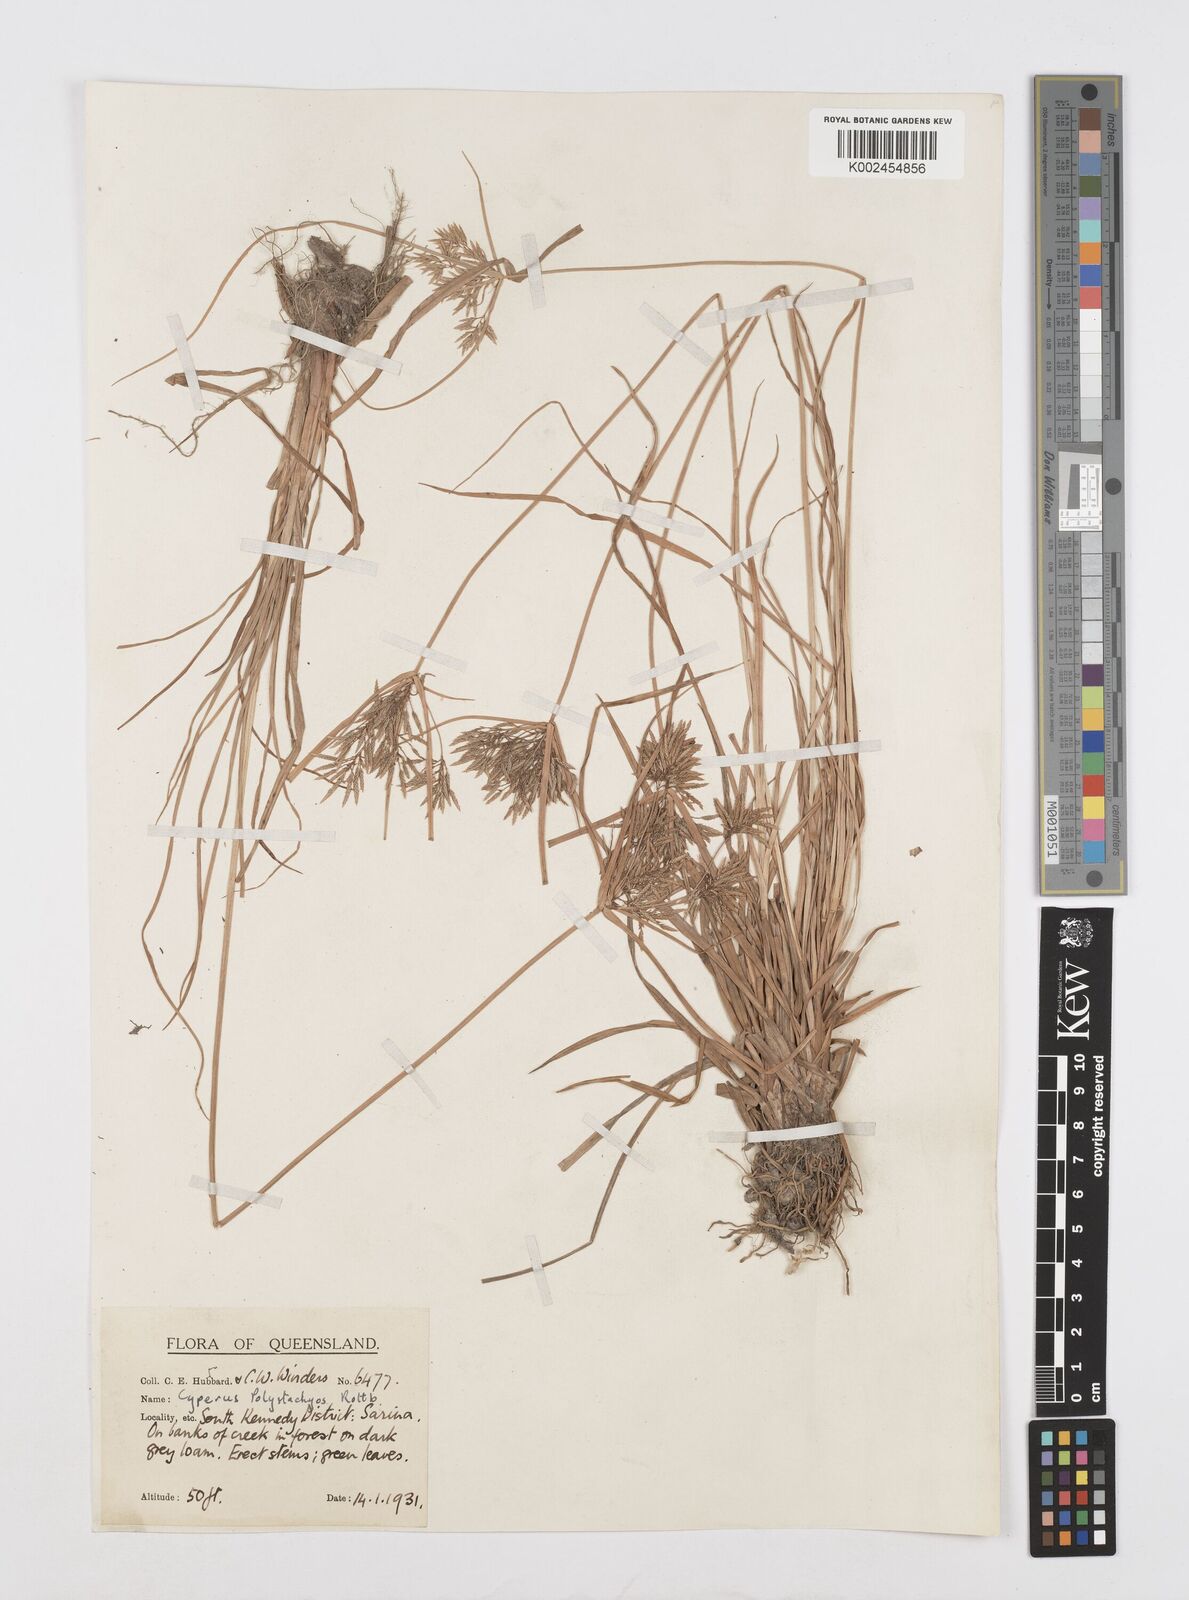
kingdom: Plantae
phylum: Tracheophyta
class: Liliopsida
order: Poales
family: Cyperaceae
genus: Cyperus
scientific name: Cyperus polystachyos
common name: Bunchy flat sedge
